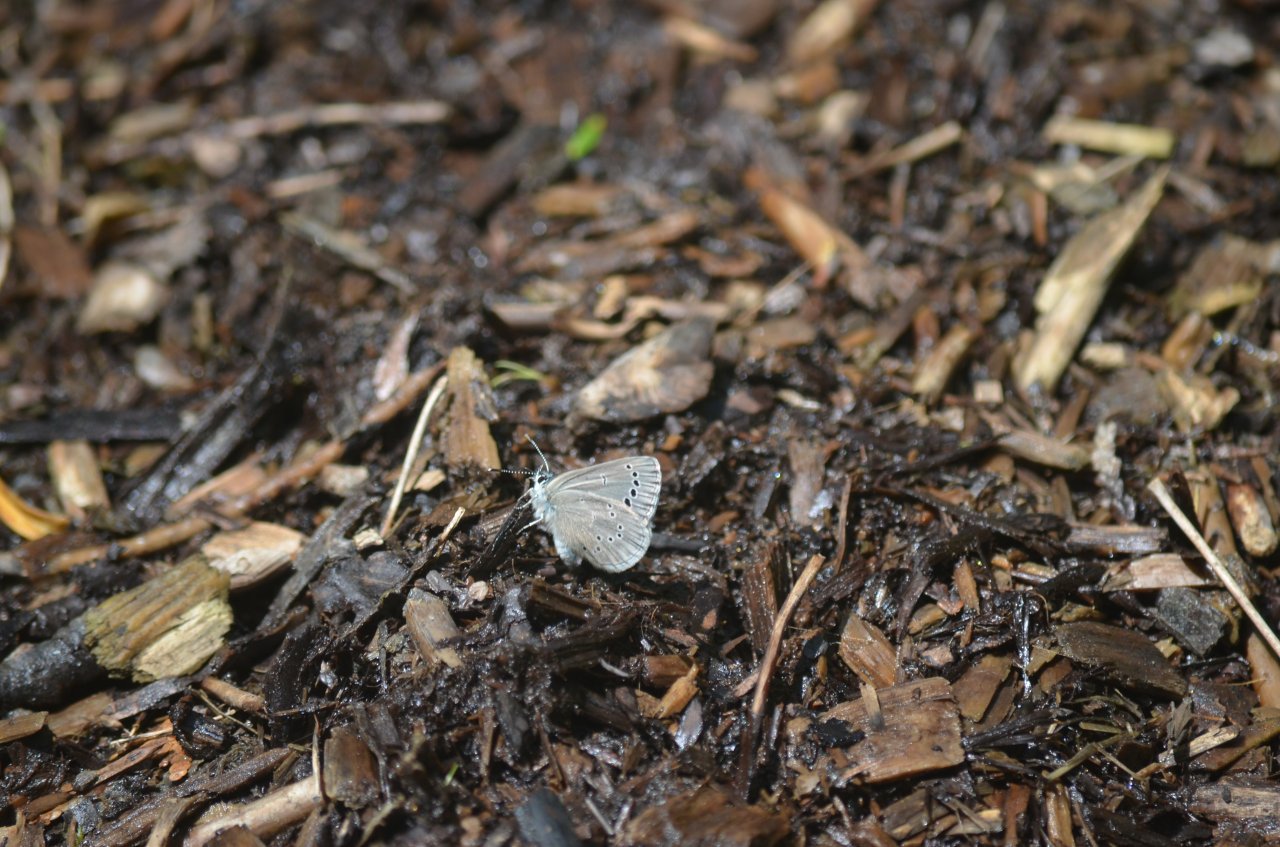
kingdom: Animalia
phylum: Arthropoda
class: Insecta
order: Lepidoptera
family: Lycaenidae
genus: Glaucopsyche
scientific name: Glaucopsyche lygdamus
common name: Silvery Blue
